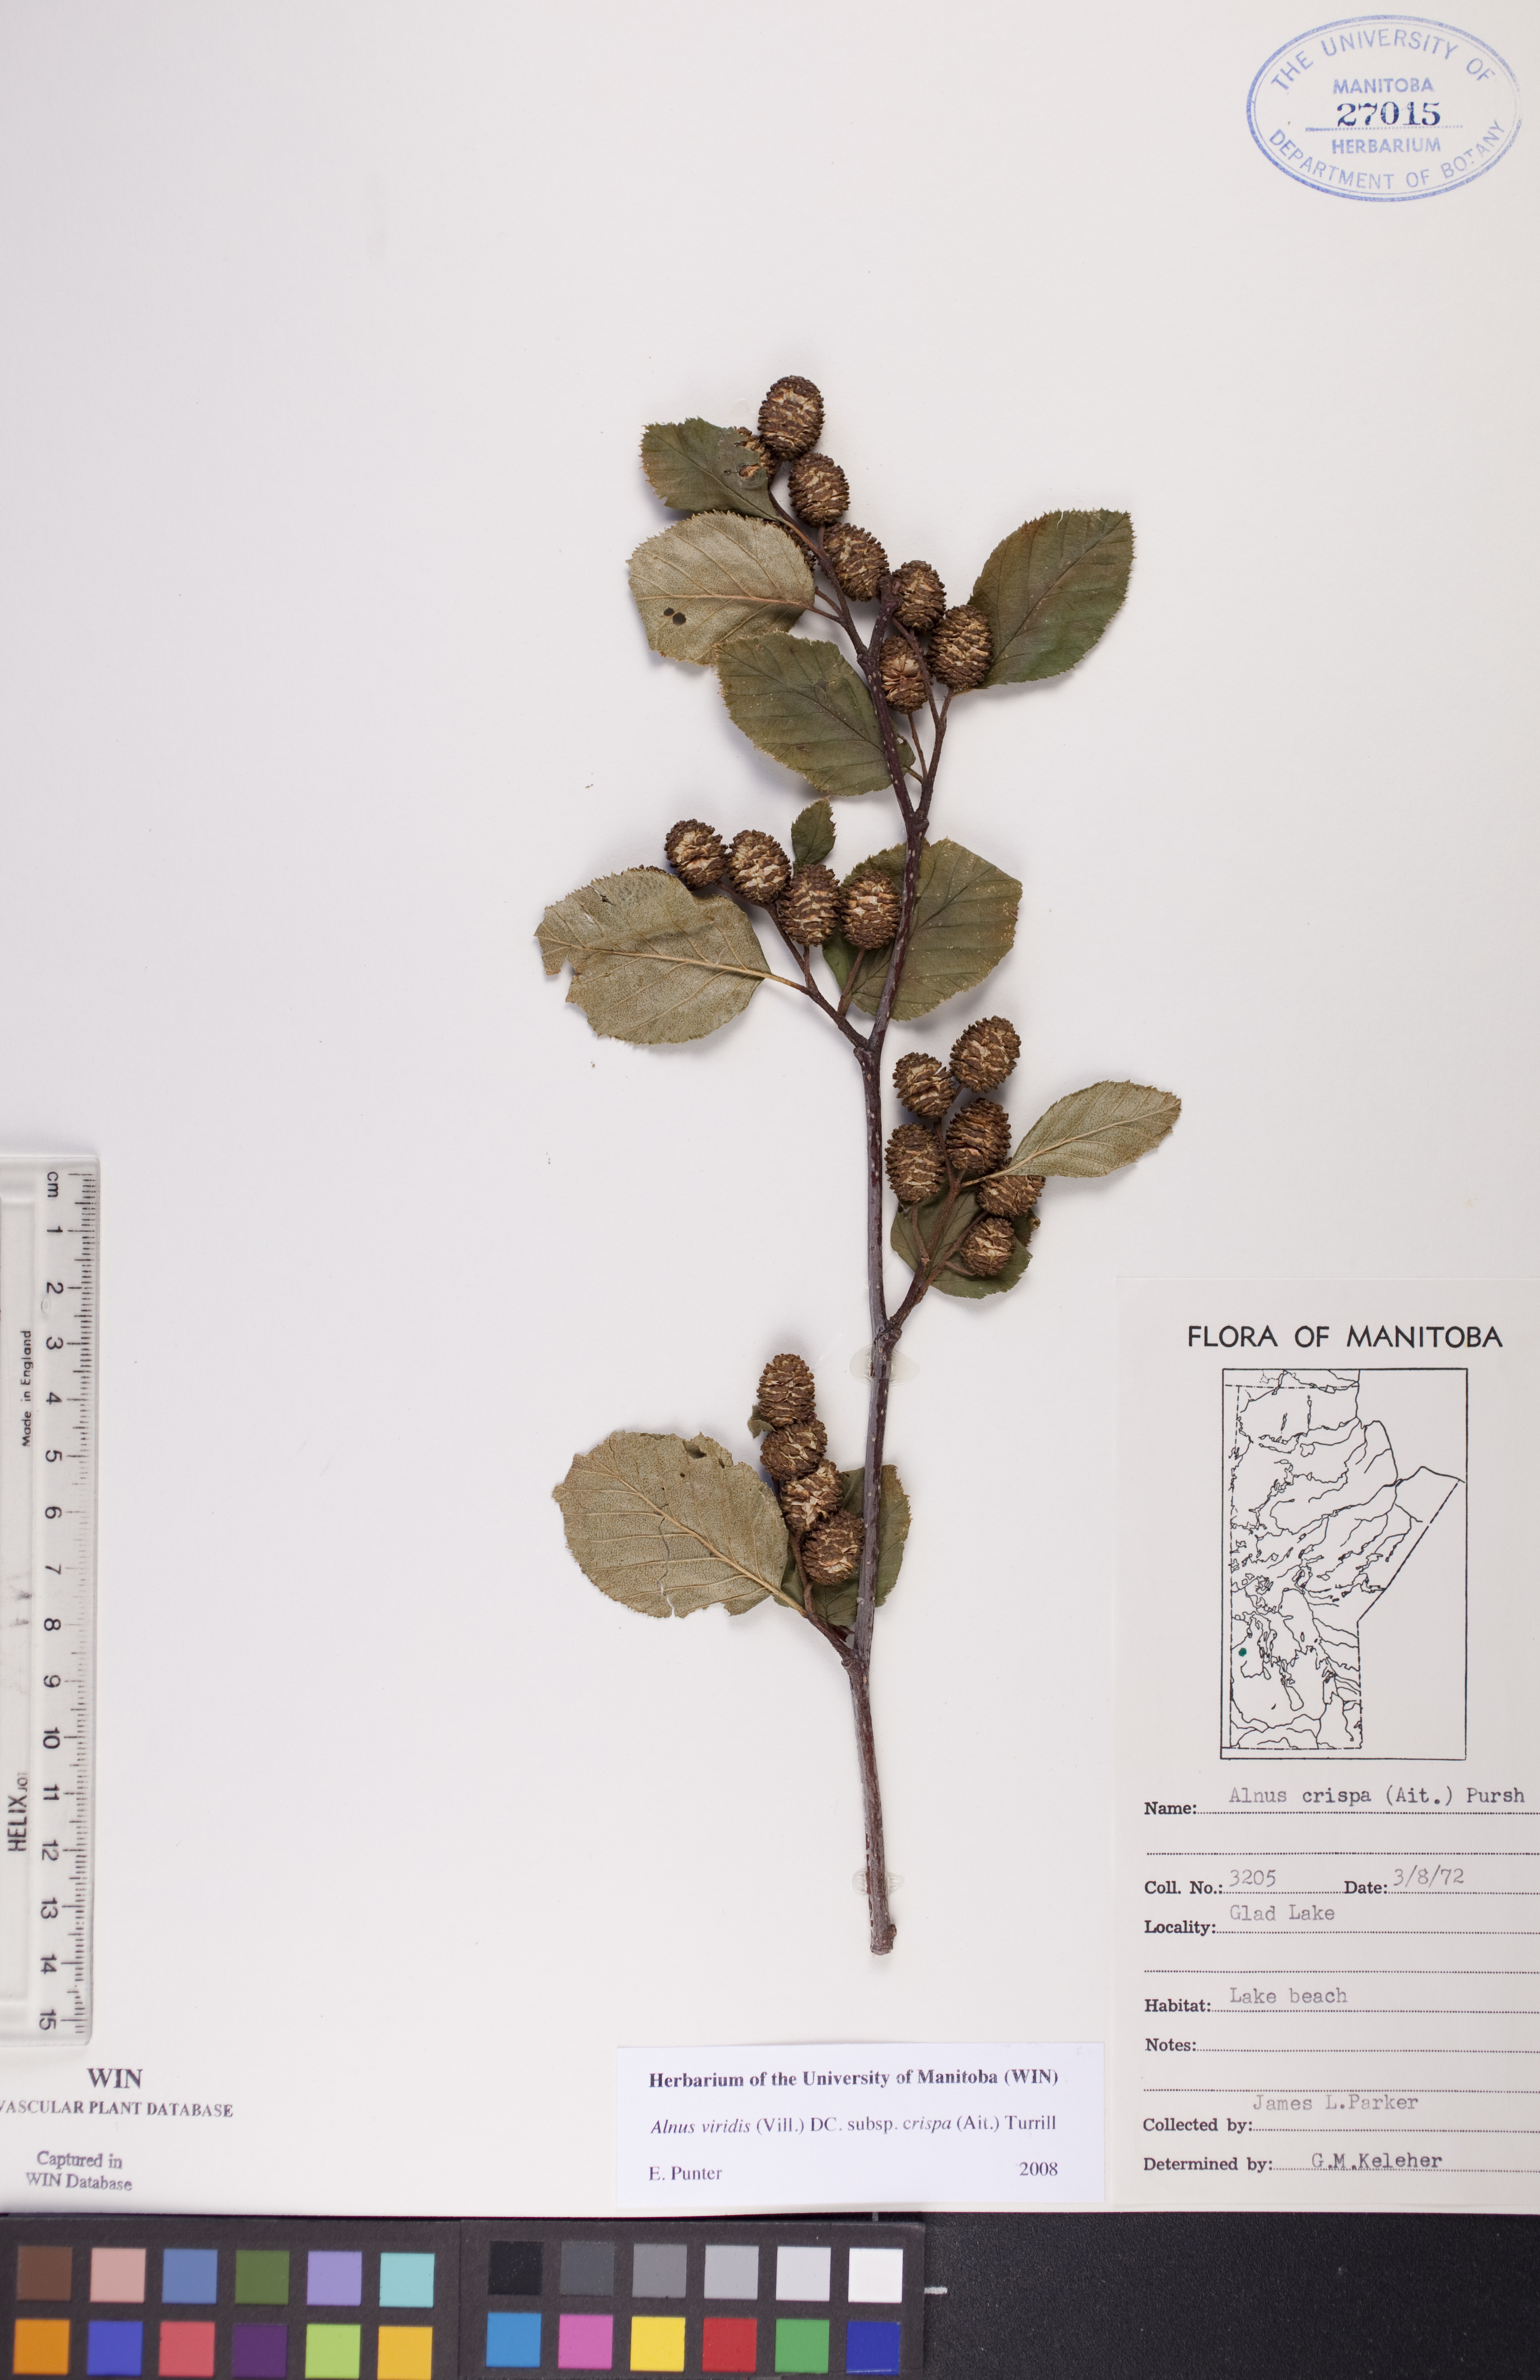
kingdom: Plantae
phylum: Tracheophyta
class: Magnoliopsida
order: Fagales
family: Betulaceae
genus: Alnus
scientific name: Alnus alnobetula
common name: Green alder
